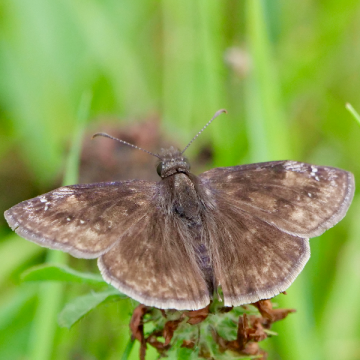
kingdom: Animalia
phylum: Arthropoda
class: Insecta
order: Lepidoptera
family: Hesperiidae
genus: Gesta
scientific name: Gesta
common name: Wild Indigo Duskywing
